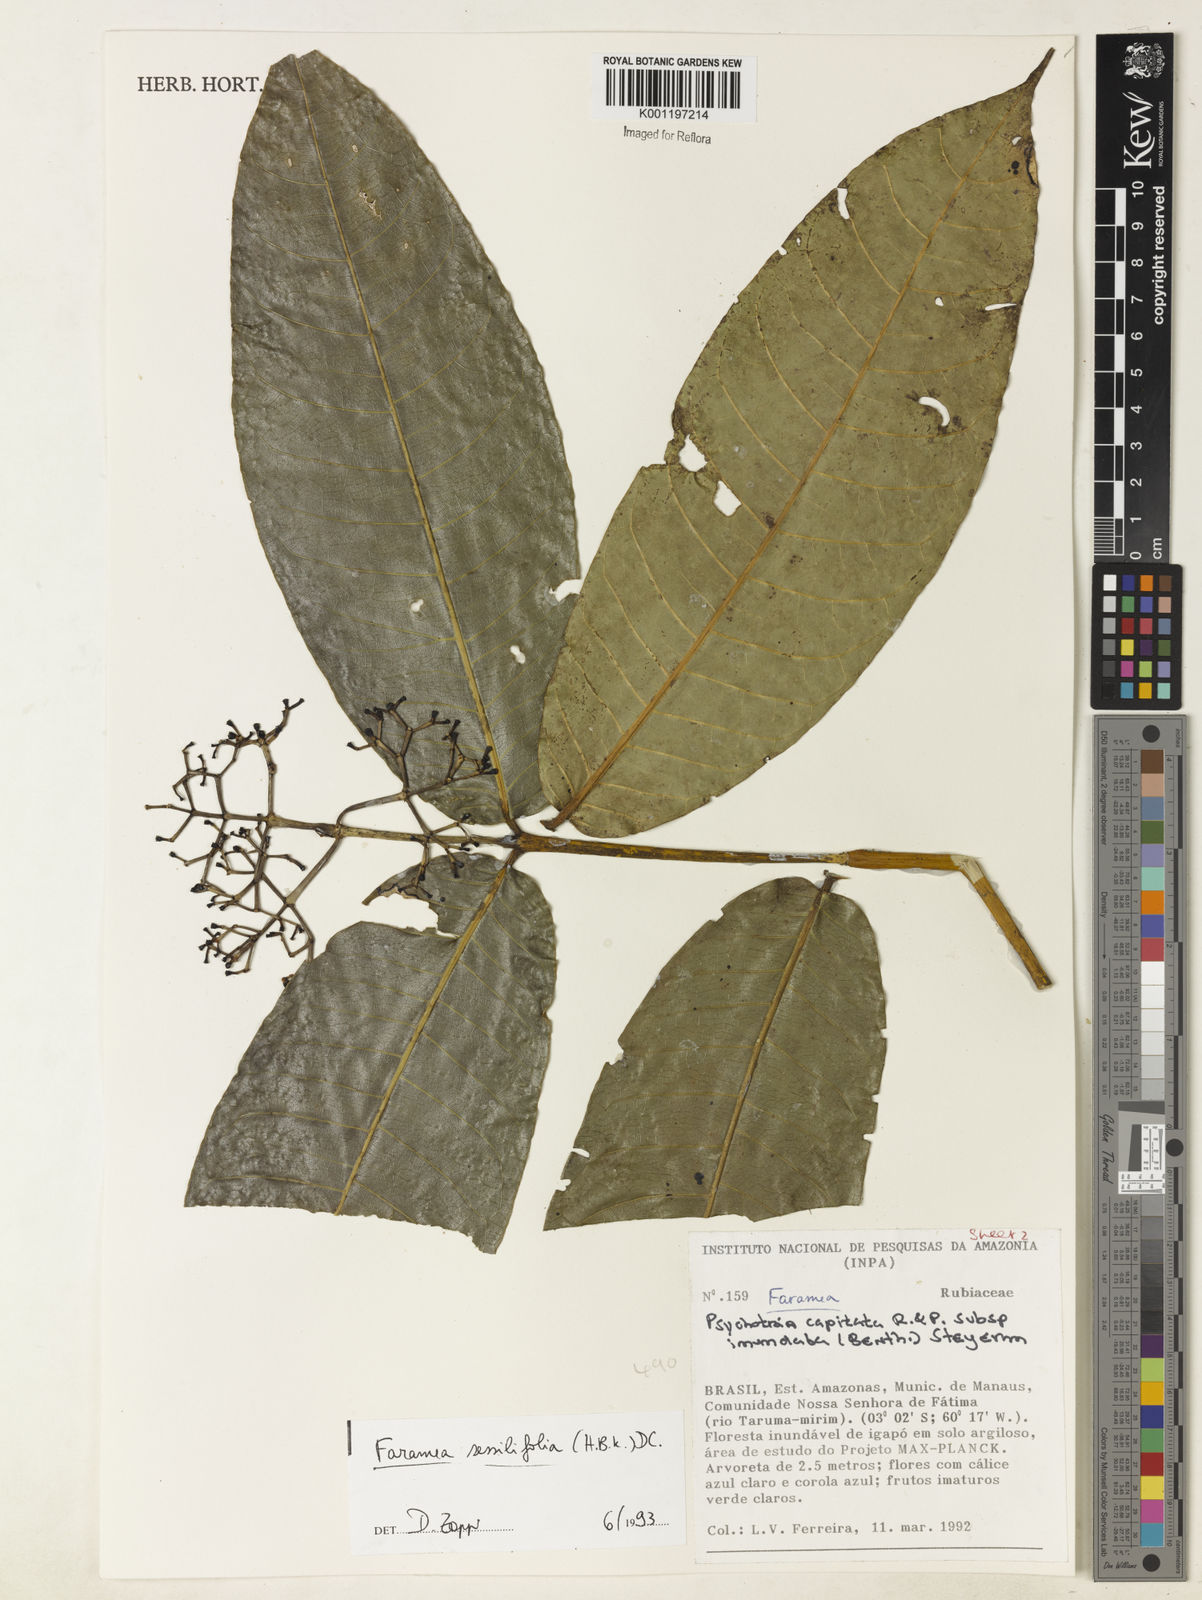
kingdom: Plantae
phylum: Tracheophyta
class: Magnoliopsida
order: Gentianales
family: Rubiaceae
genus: Faramea
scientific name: Faramea sessilifolia
